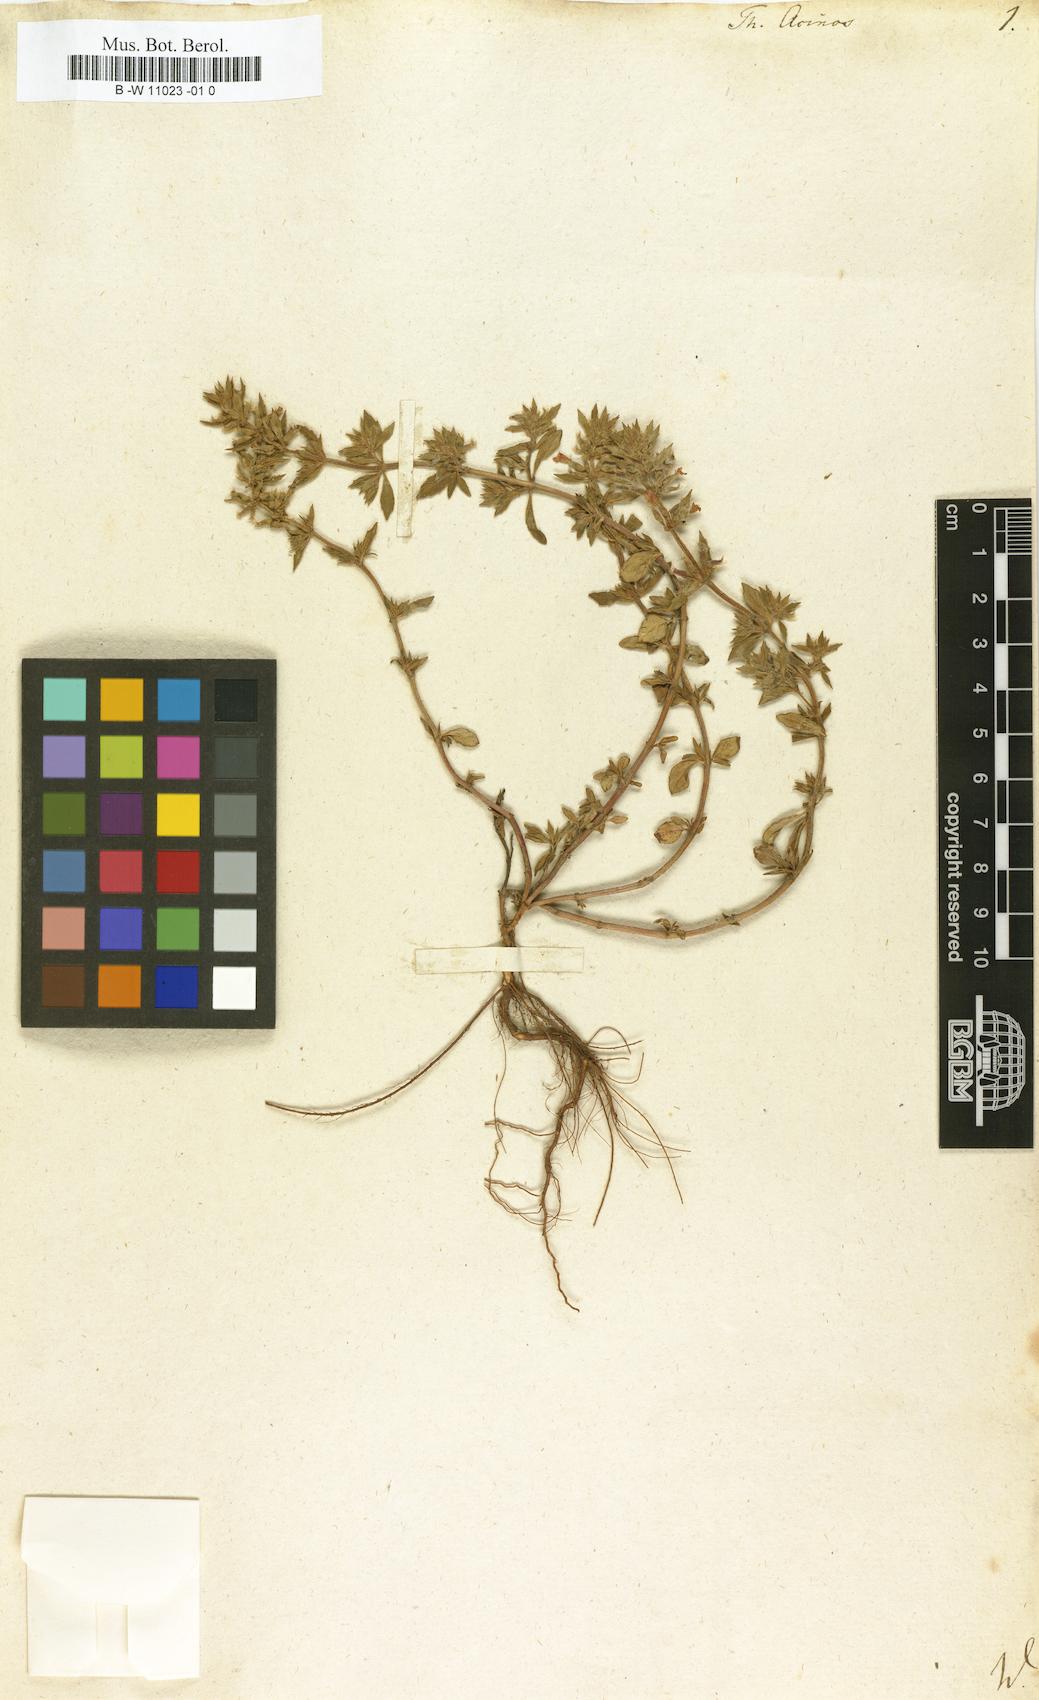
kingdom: Plantae
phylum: Tracheophyta
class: Magnoliopsida
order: Lamiales
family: Lamiaceae
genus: Clinopodium
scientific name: Clinopodium acinos
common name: Basil thyme
